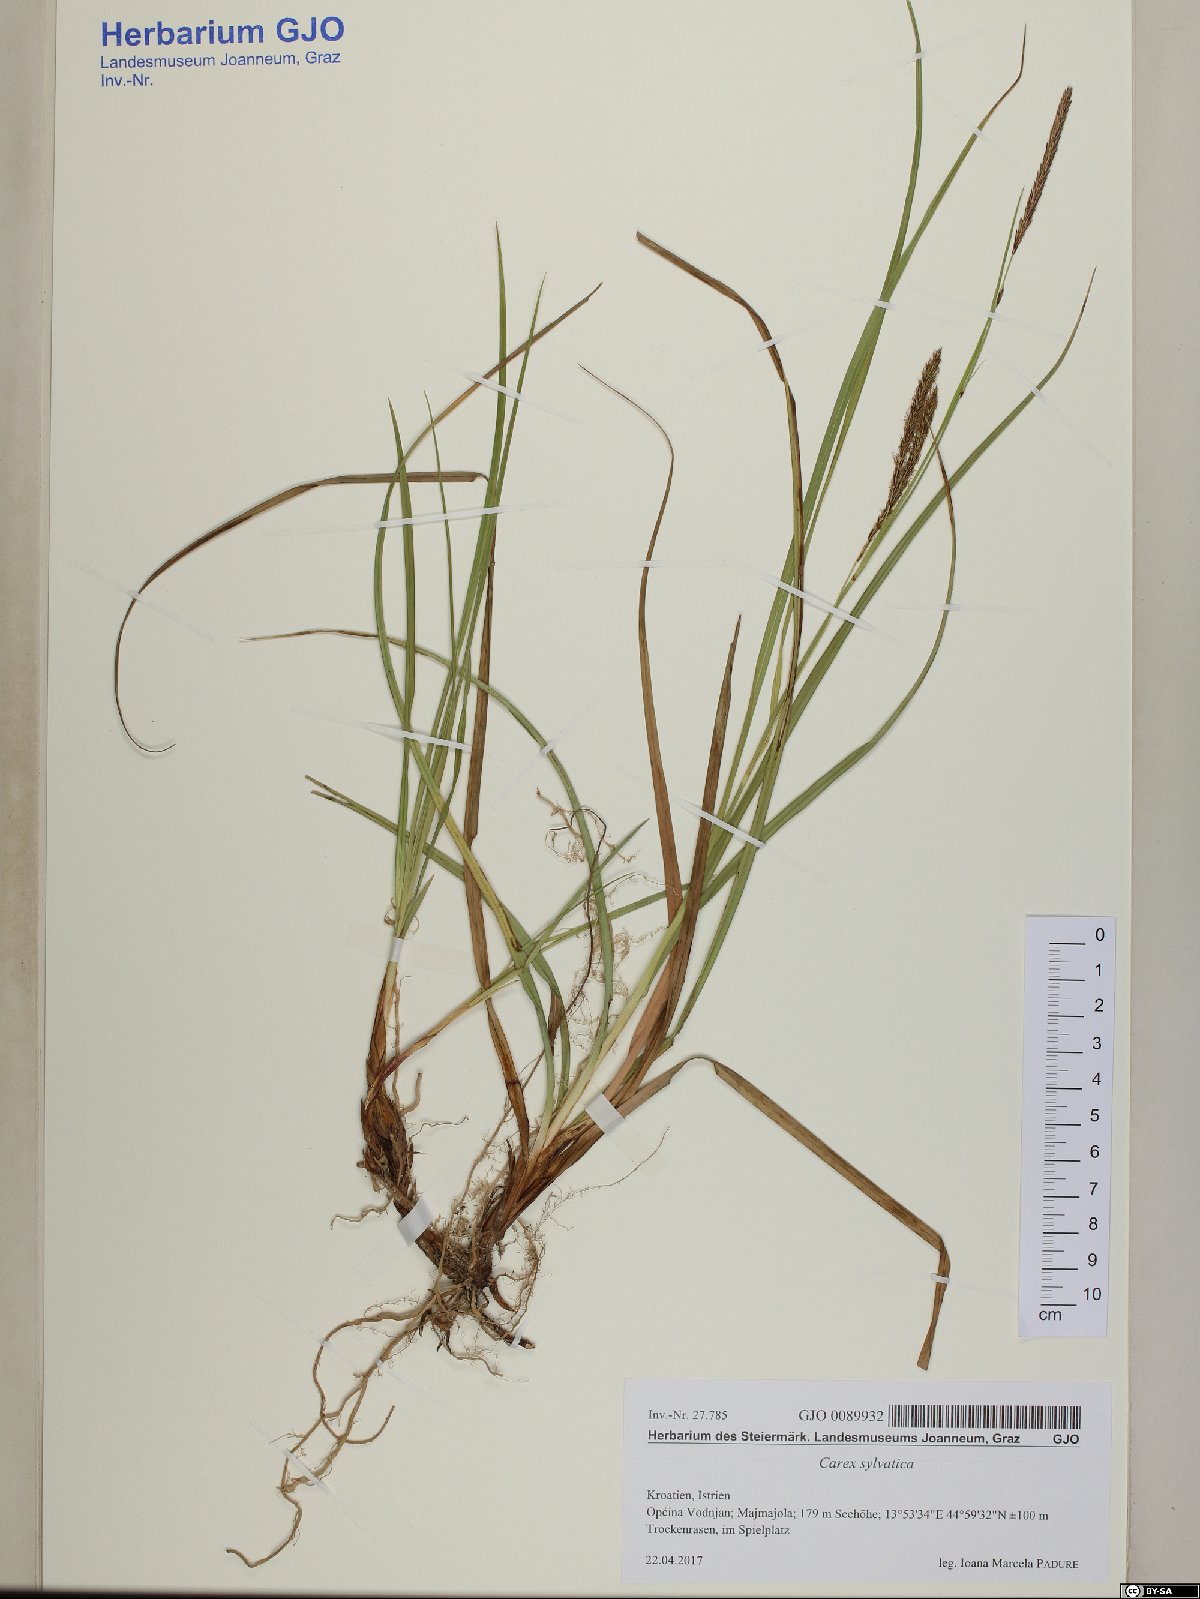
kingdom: Plantae
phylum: Tracheophyta
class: Liliopsida
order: Poales
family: Cyperaceae
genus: Carex
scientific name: Carex sylvatica
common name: Wood-sedge
